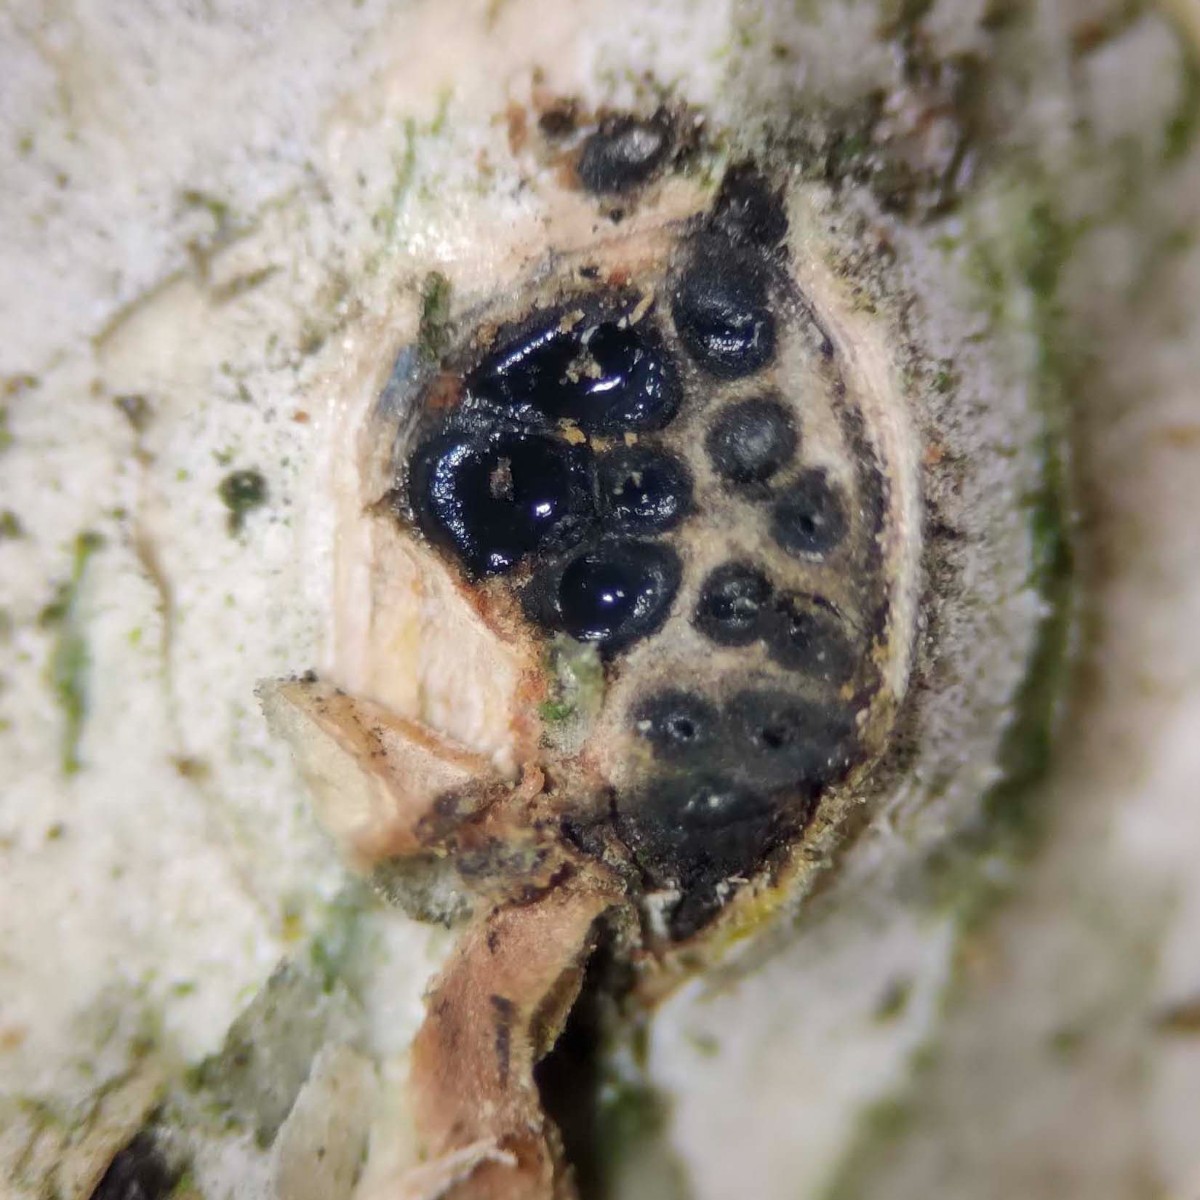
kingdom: Fungi
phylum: Ascomycota
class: Sordariomycetes
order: Xylariales
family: Diatrypaceae
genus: Diatrypella
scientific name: Diatrypella favacea
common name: Birch blackhead
